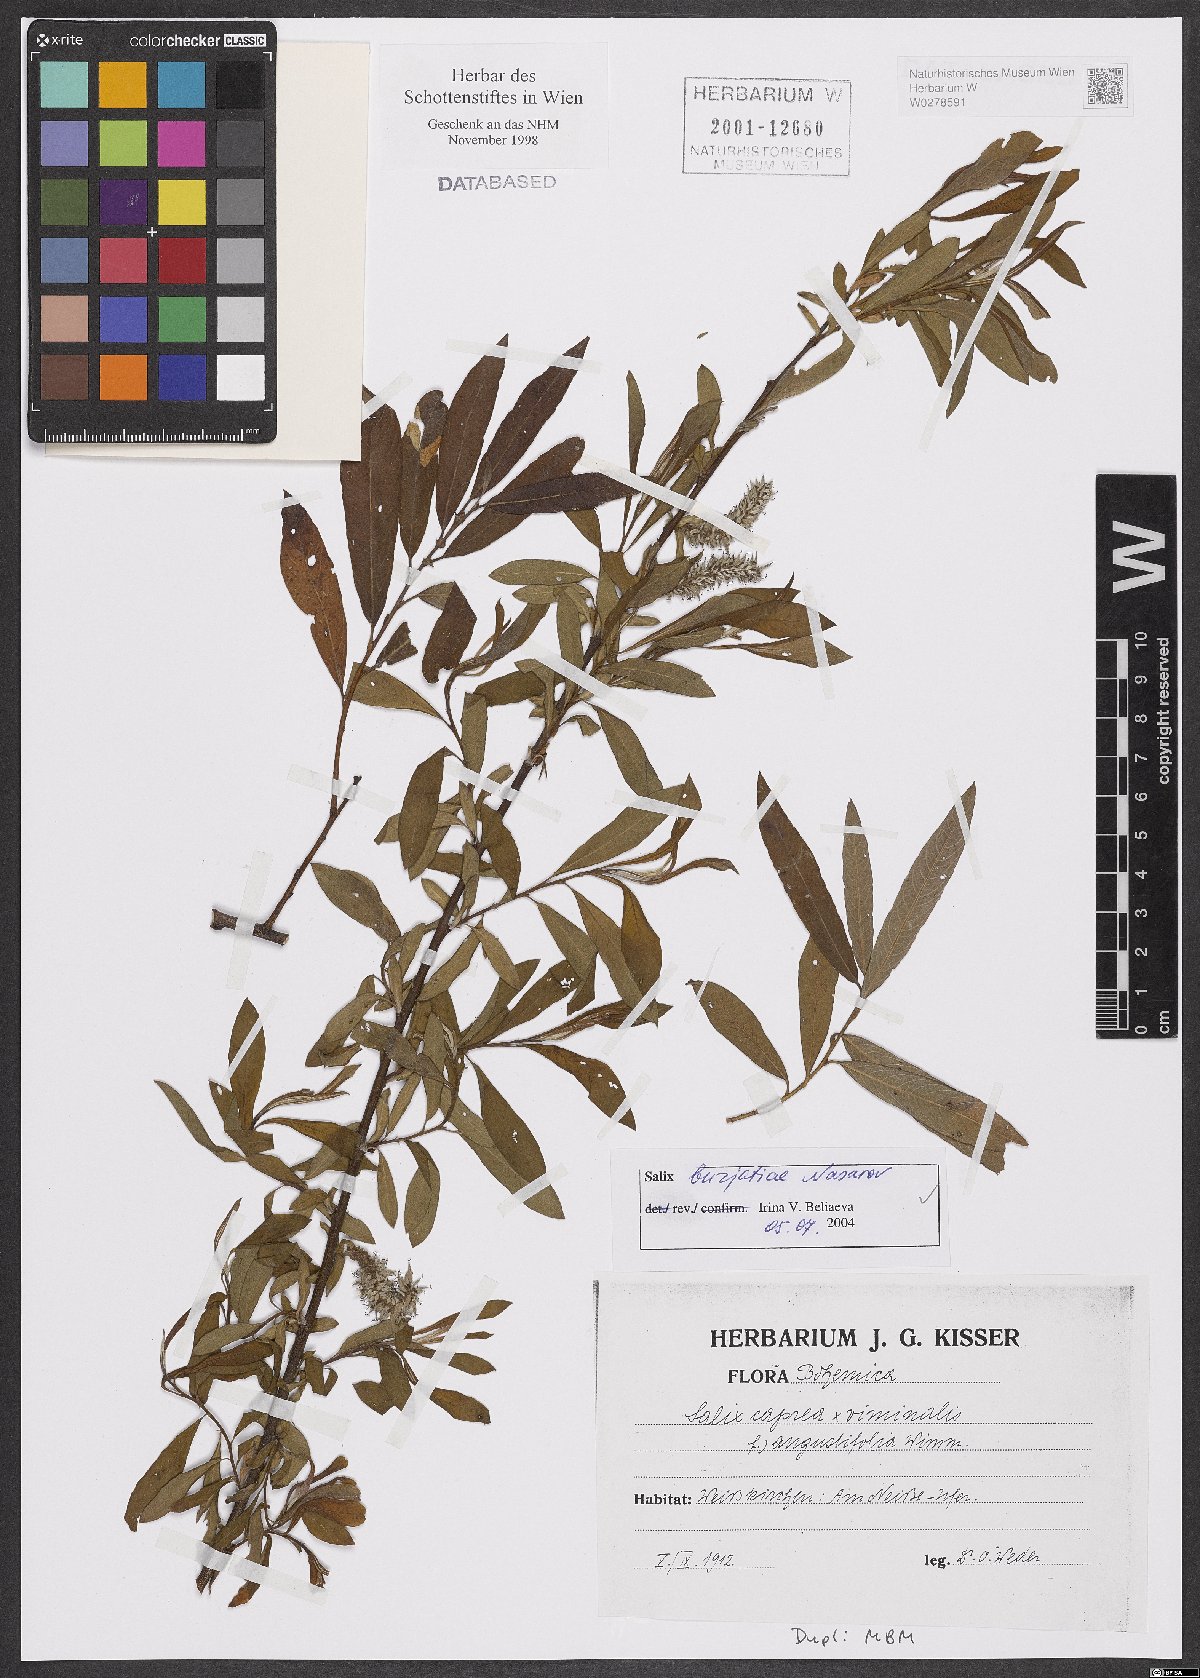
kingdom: Plantae
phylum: Tracheophyta
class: Magnoliopsida
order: Malpighiales
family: Salicaceae
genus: Salix
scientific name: Salix gmelinii
